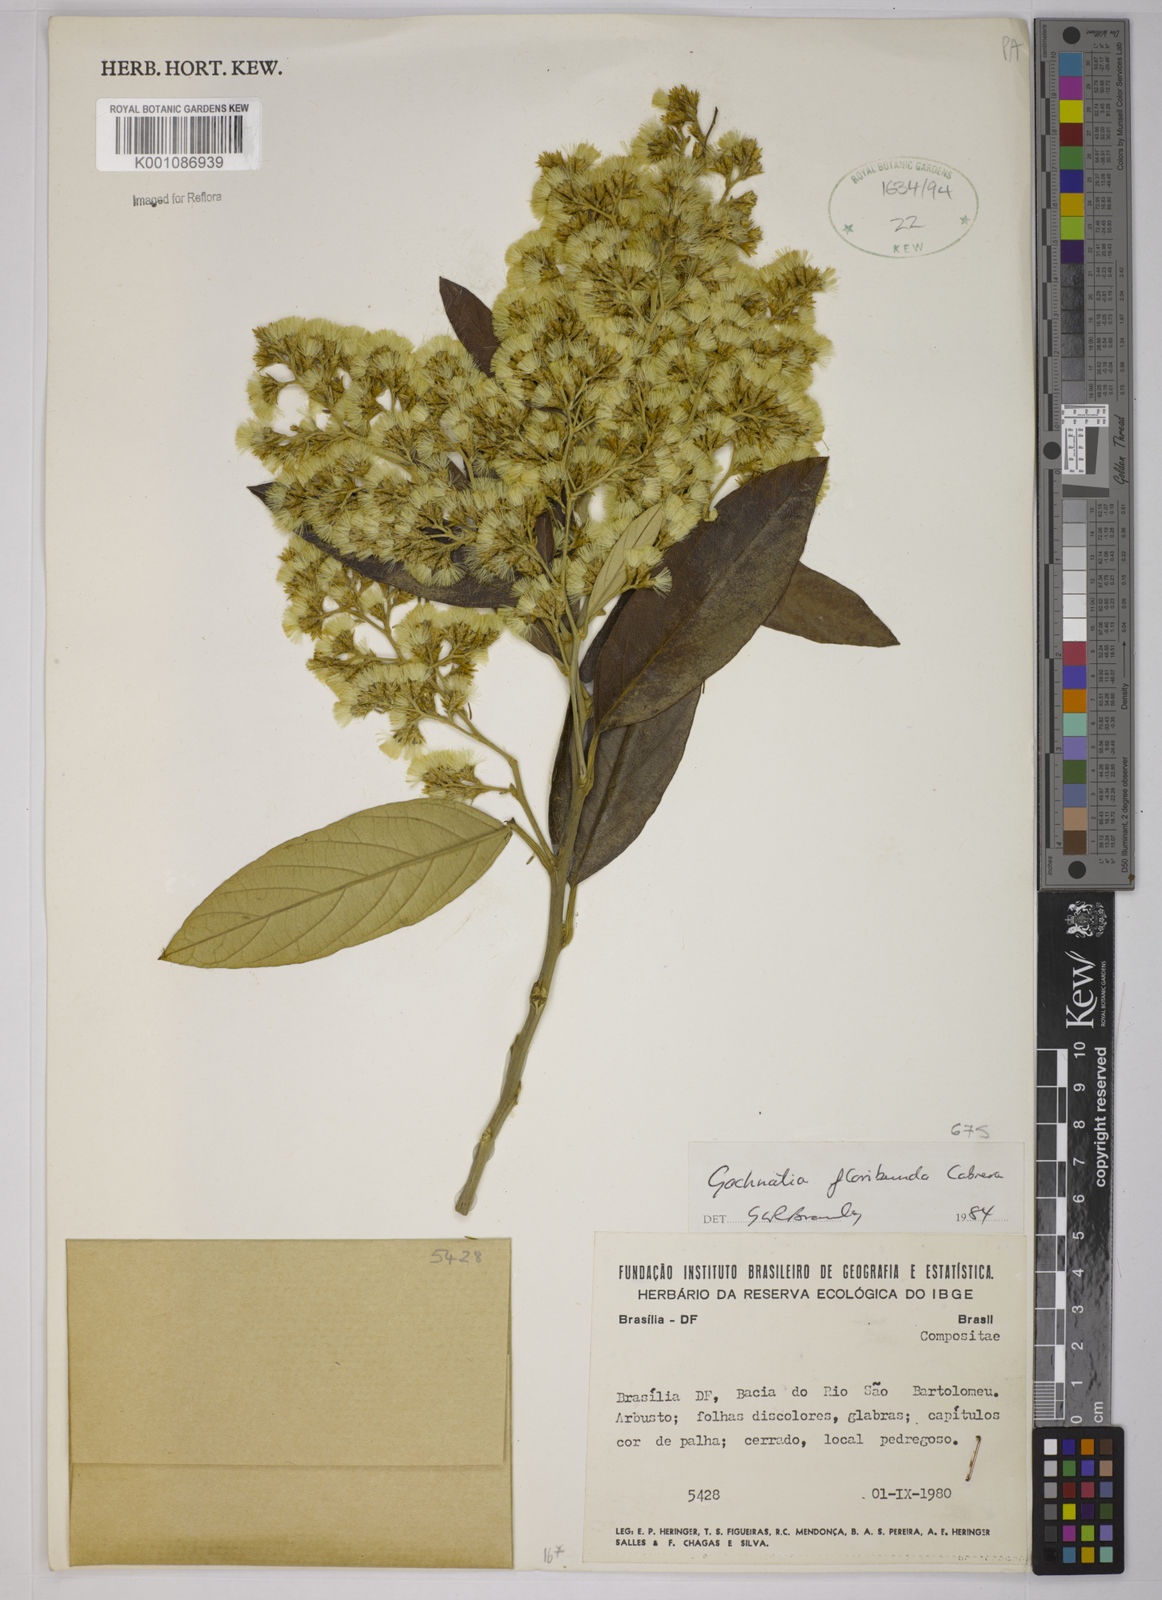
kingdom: Plantae
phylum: Tracheophyta
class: Magnoliopsida
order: Asterales
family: Asteraceae
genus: Moquiniastrum
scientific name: Moquiniastrum floribundum
